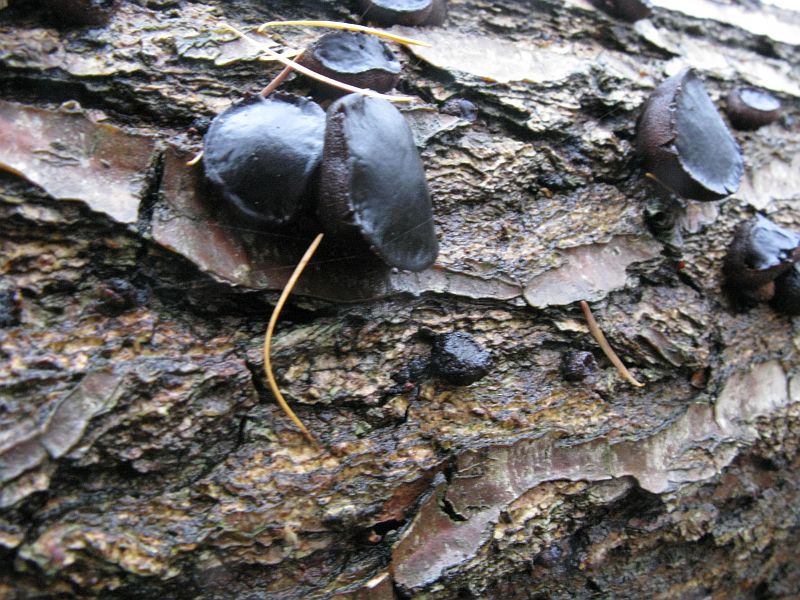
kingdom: Fungi
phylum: Ascomycota
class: Leotiomycetes
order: Phacidiales
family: Phacidiaceae
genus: Bulgaria
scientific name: Bulgaria inquinans
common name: afsmittende topsvamp
